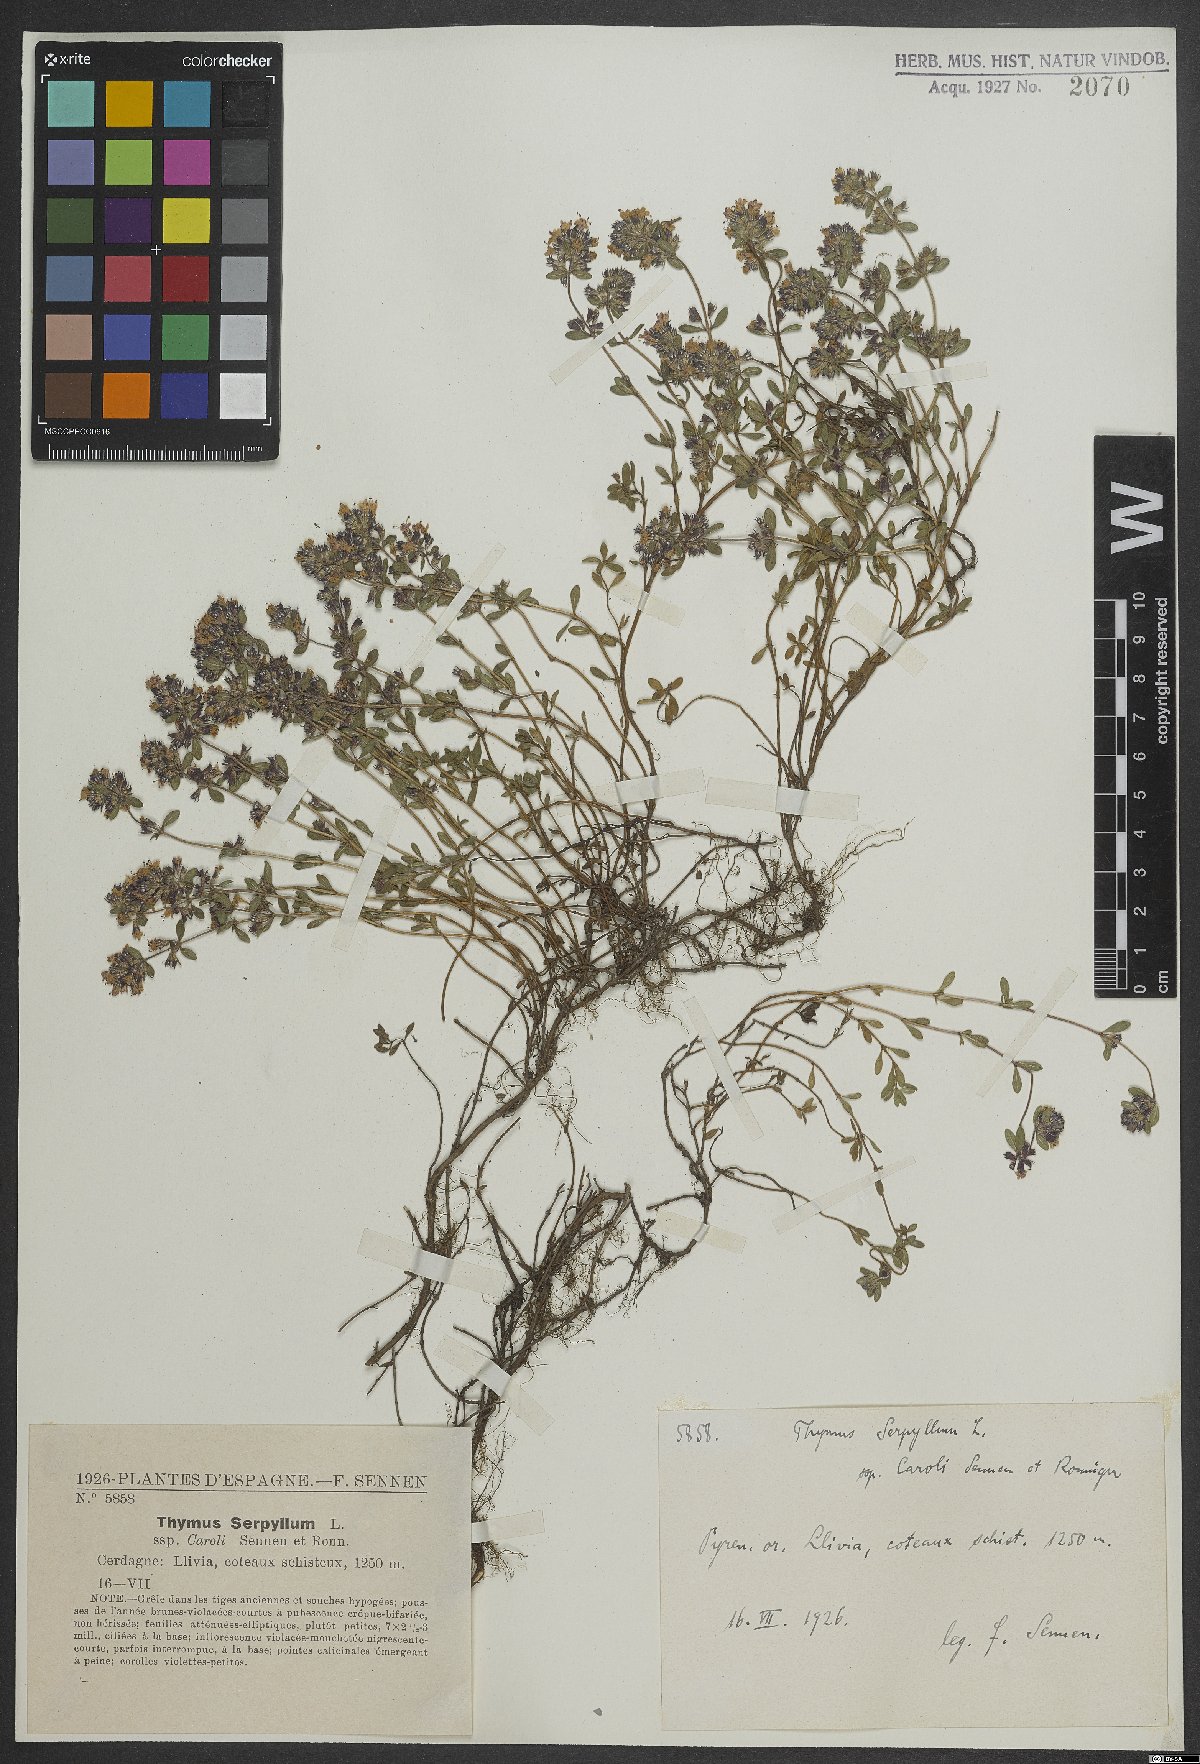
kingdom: Plantae
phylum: Tracheophyta
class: Magnoliopsida
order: Lamiales
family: Lamiaceae
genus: Thymus
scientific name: Thymus serpyllum
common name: Breckland thyme
